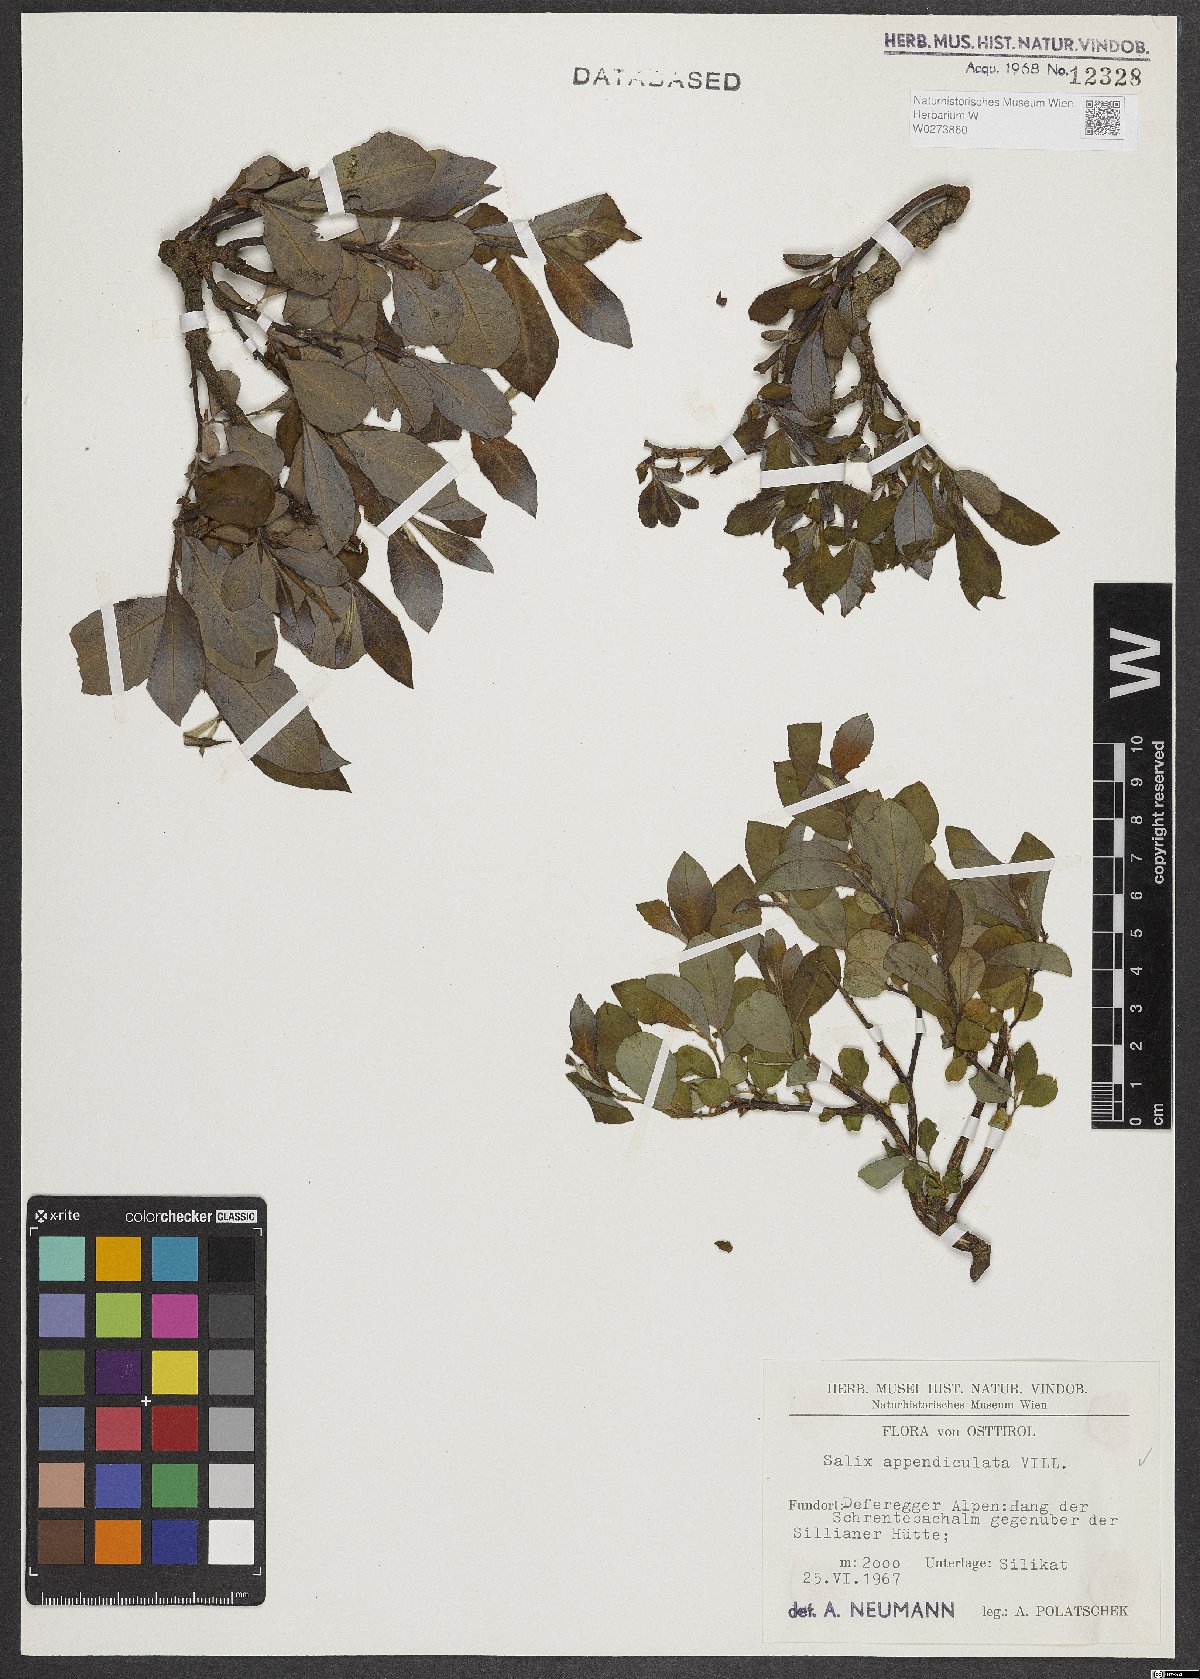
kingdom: Plantae
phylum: Tracheophyta
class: Magnoliopsida
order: Malpighiales
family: Salicaceae
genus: Salix
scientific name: Salix appendiculata
